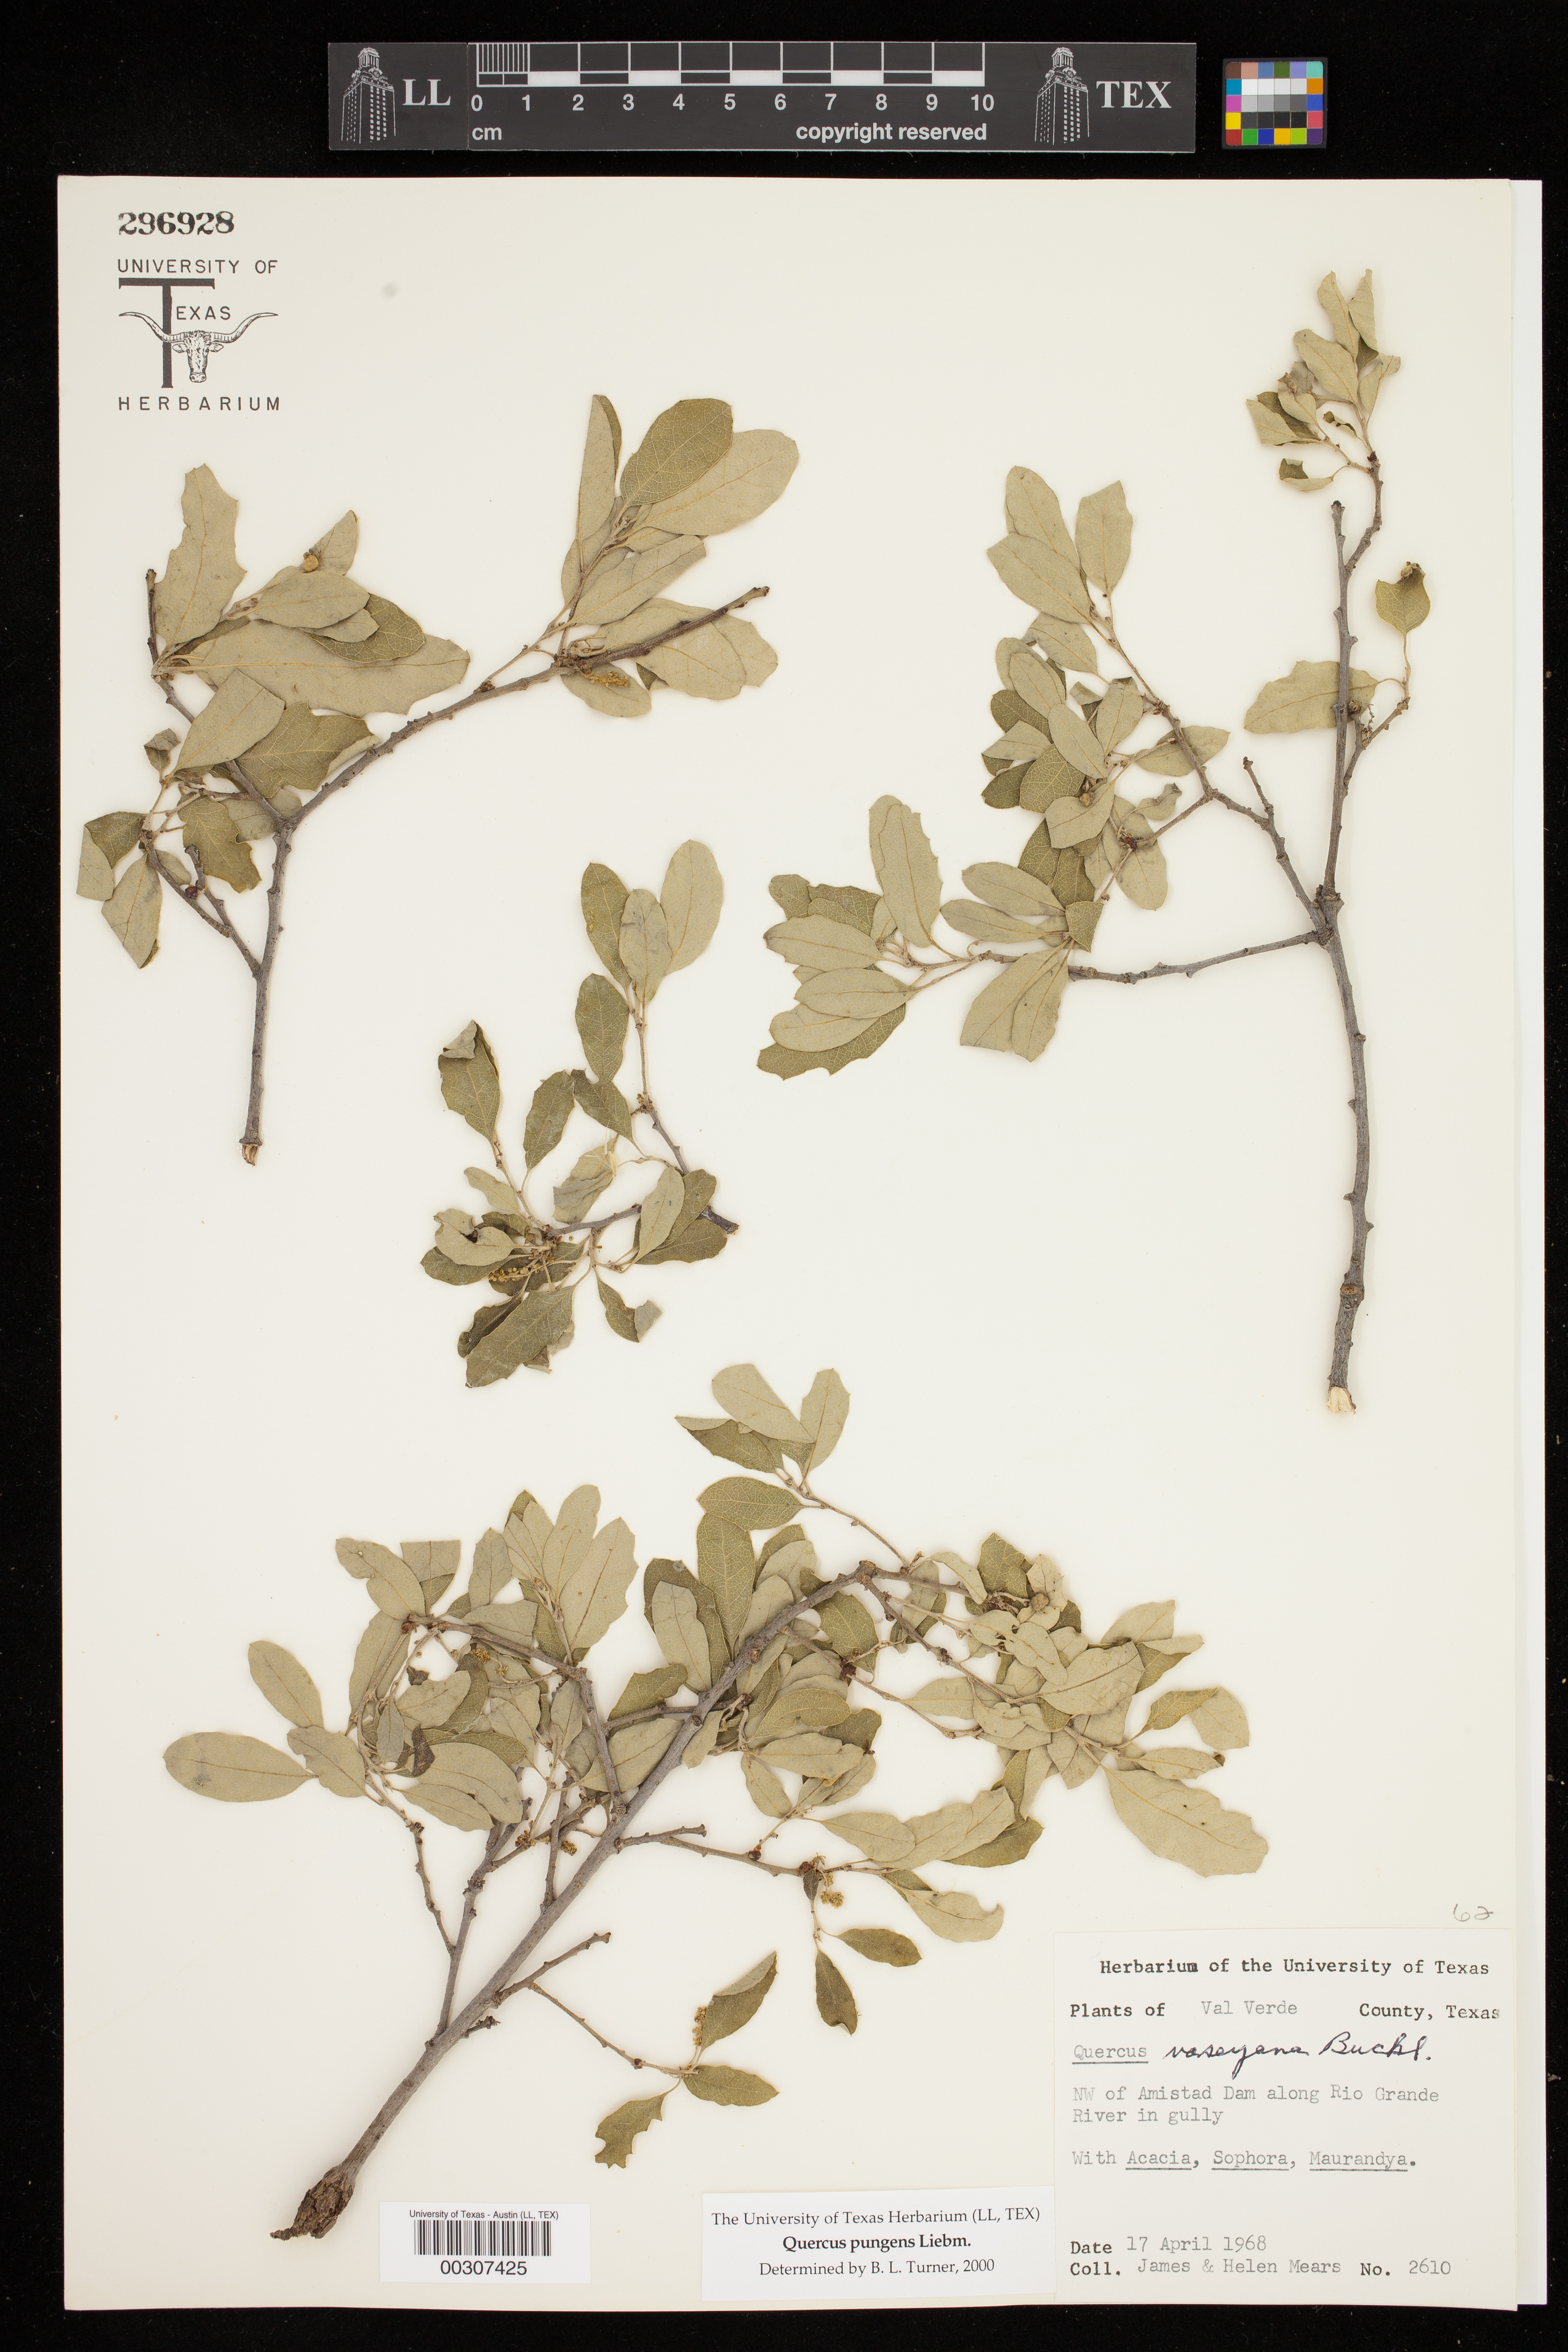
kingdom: Plantae
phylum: Tracheophyta
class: Magnoliopsida
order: Fagales
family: Fagaceae
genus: Quercus
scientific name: Quercus pungens
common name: Pungent oak
